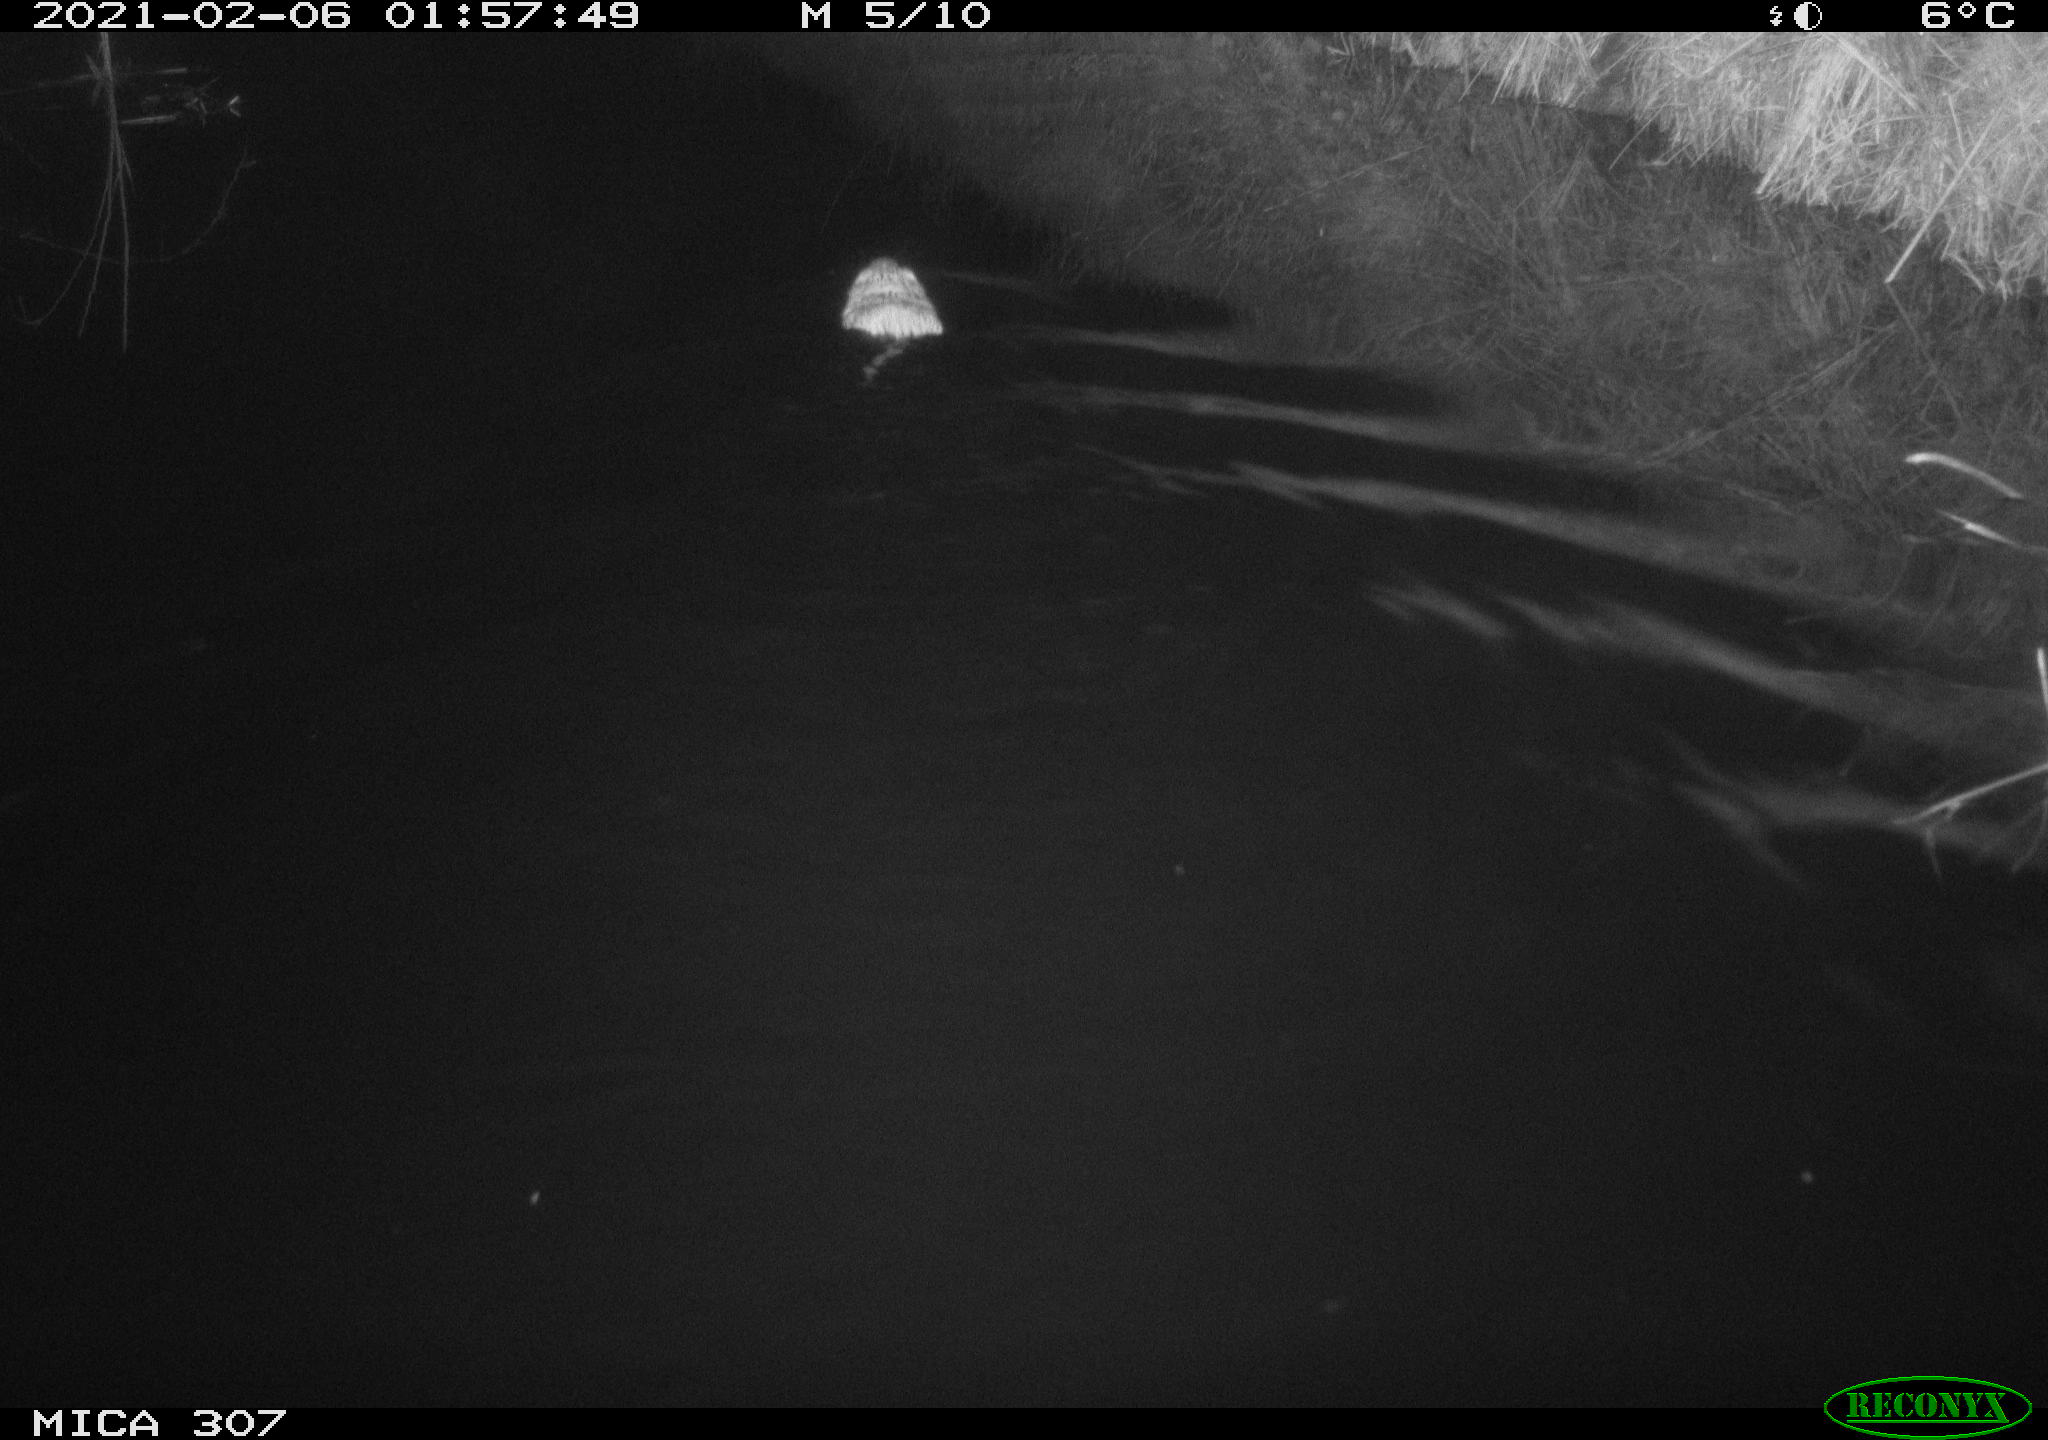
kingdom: Animalia
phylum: Chordata
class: Mammalia
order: Rodentia
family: Cricetidae
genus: Ondatra
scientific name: Ondatra zibethicus
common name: Muskrat
